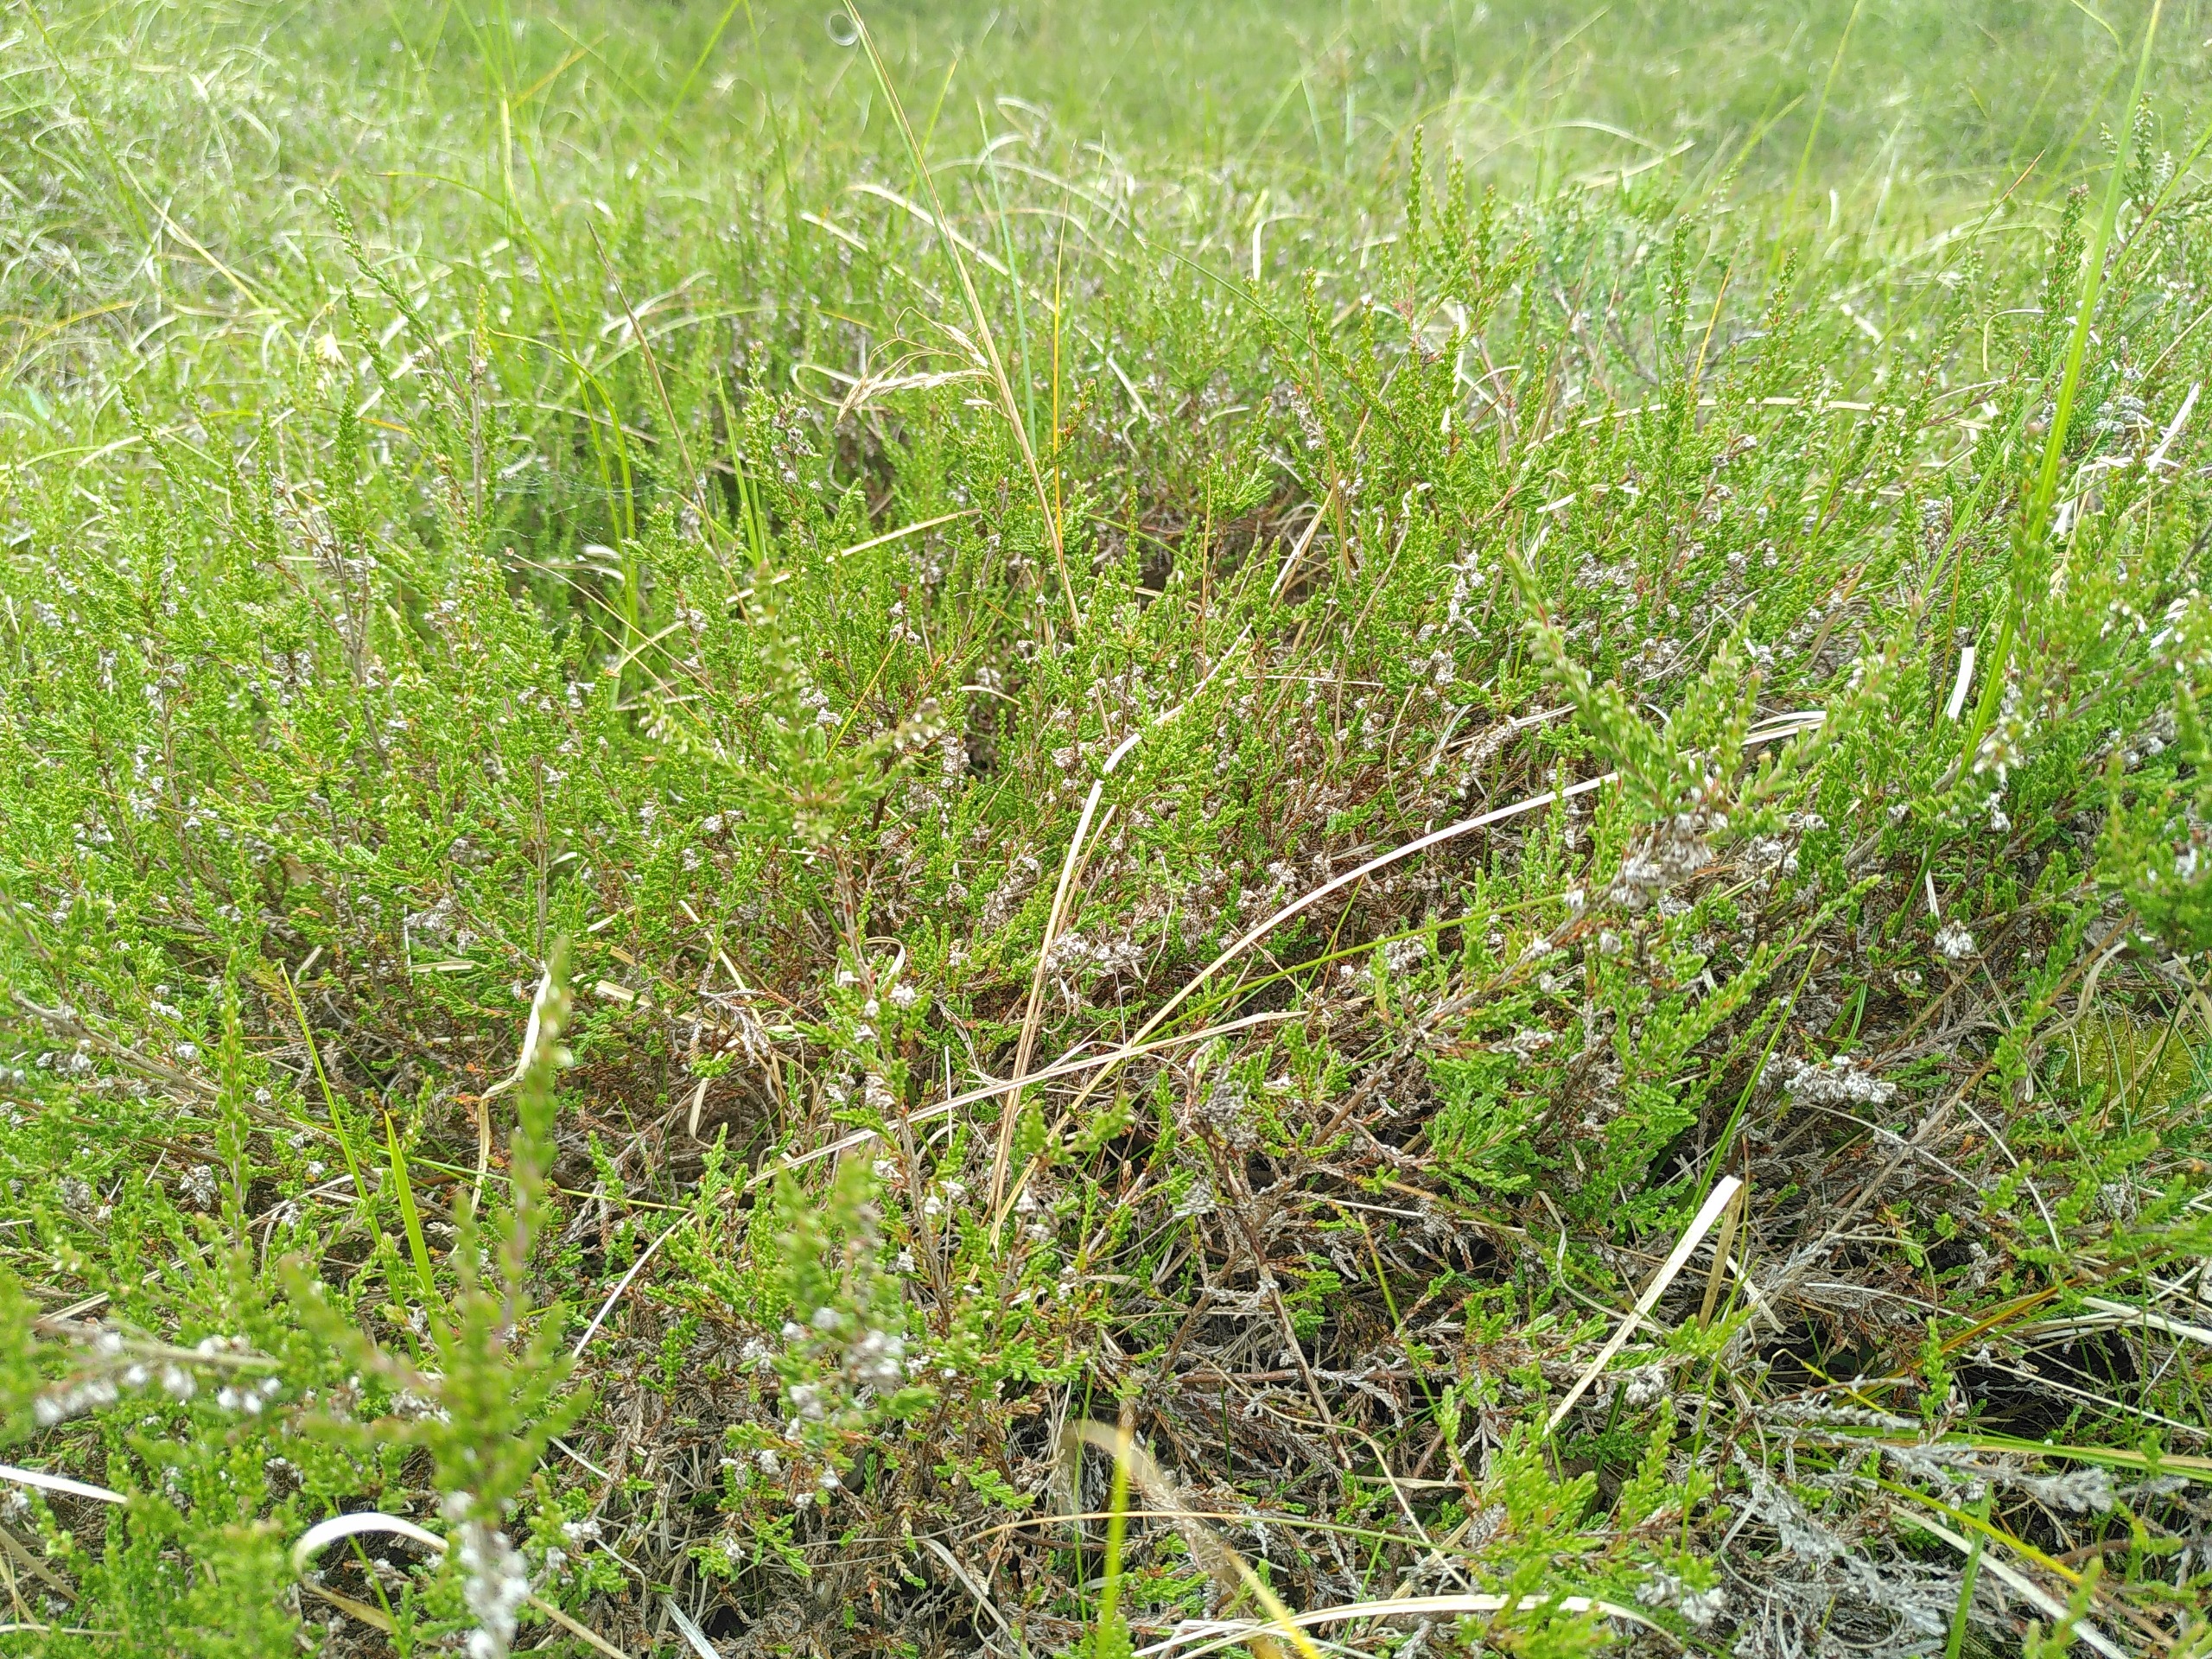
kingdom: Plantae
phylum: Tracheophyta
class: Magnoliopsida
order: Ericales
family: Ericaceae
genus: Calluna
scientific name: Calluna vulgaris
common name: Hedelyng
